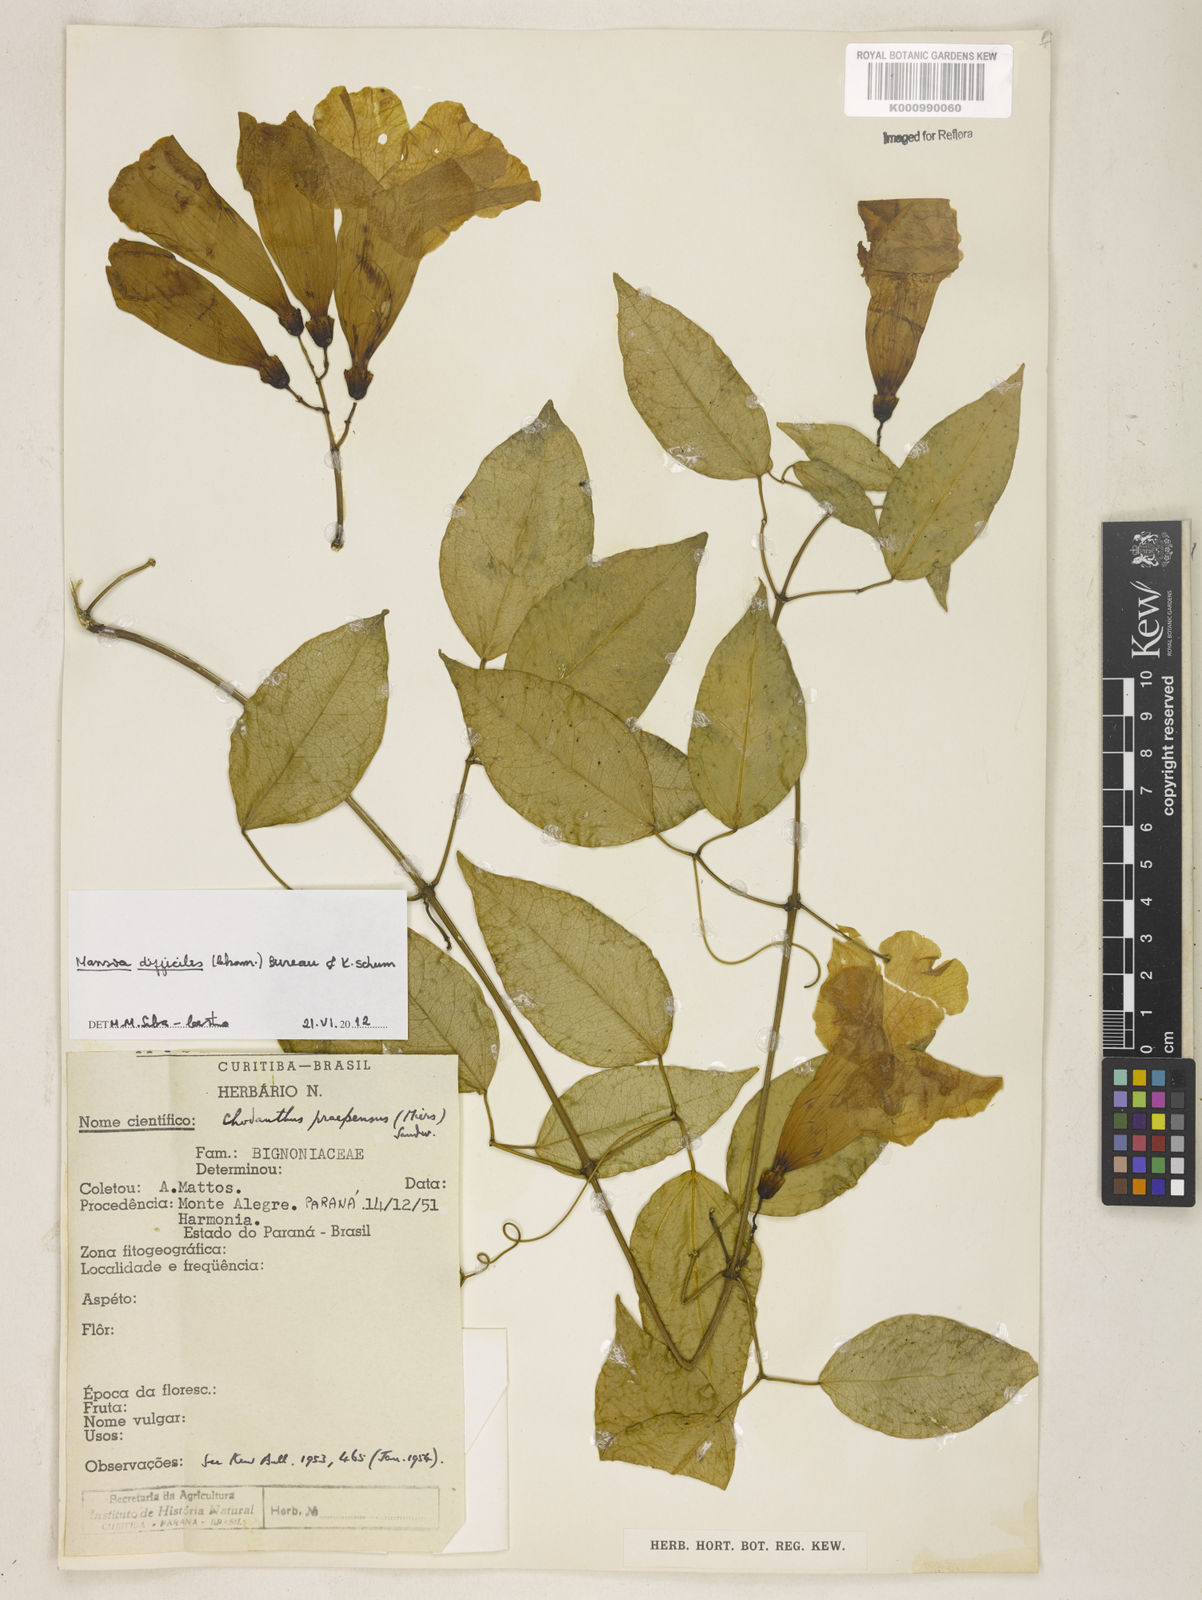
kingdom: Plantae
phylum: Tracheophyta
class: Magnoliopsida
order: Lamiales
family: Bignoniaceae
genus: Mansoa
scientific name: Mansoa difficilis
